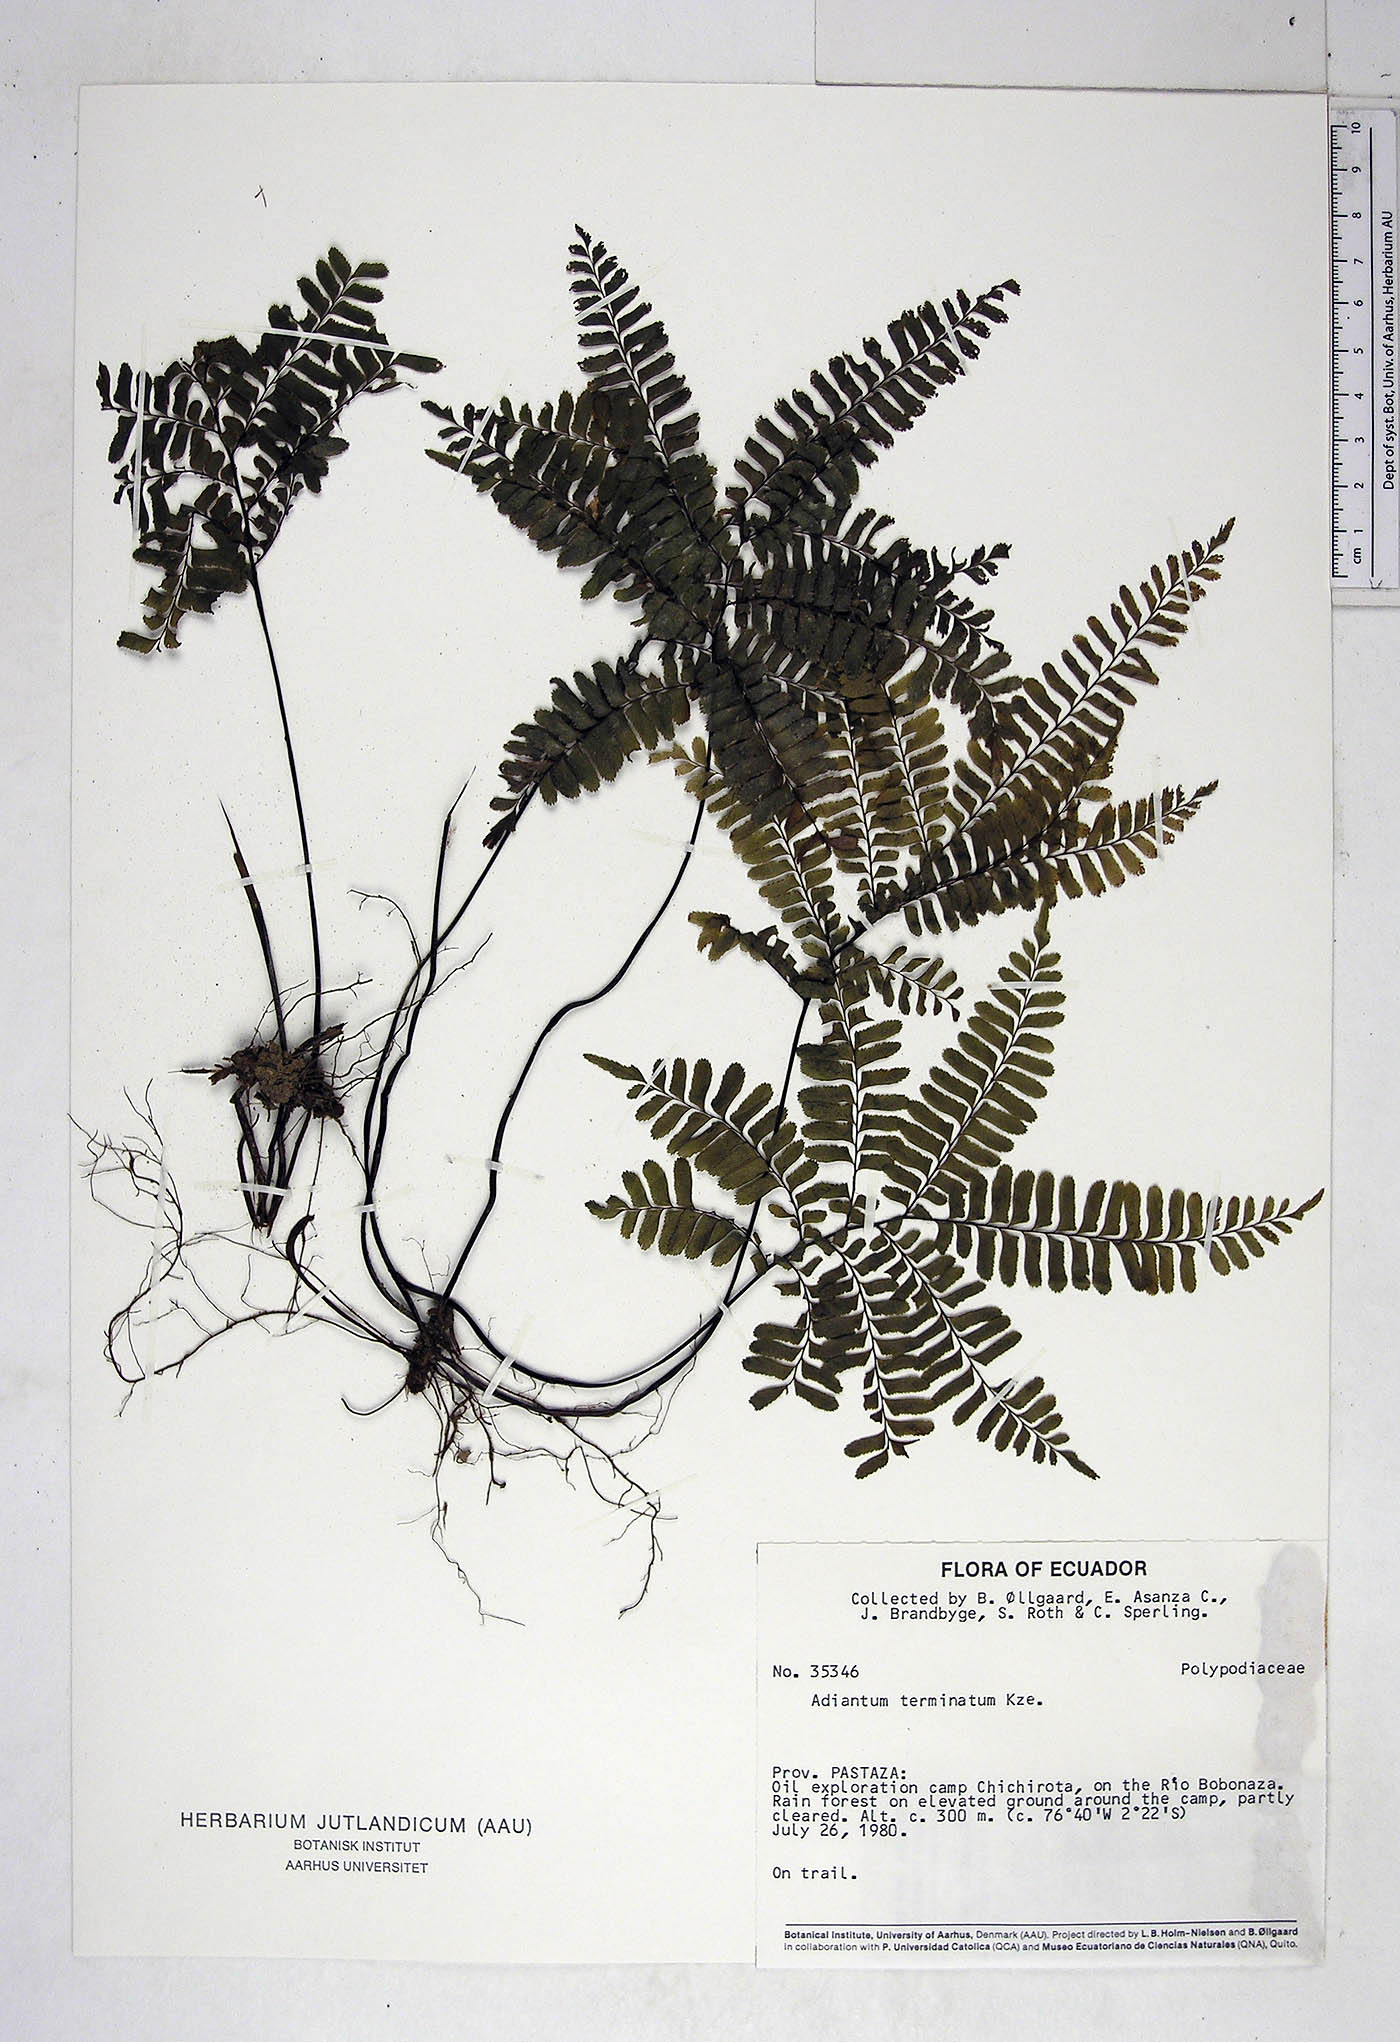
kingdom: Plantae
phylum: Tracheophyta
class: Polypodiopsida
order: Polypodiales
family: Pteridaceae
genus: Adiantum
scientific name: Adiantum terminatum
